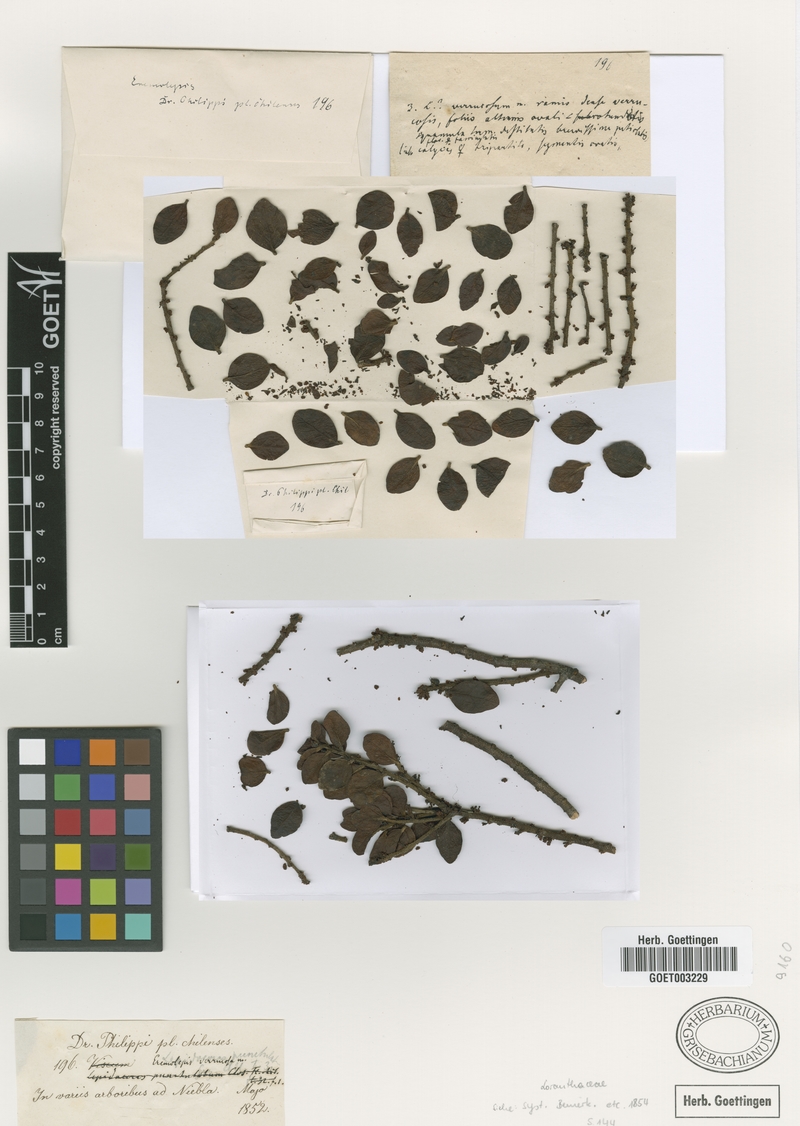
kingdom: Plantae
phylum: Tracheophyta
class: Magnoliopsida
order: Santalales
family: Santalaceae
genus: Antidaphne
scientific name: Antidaphne punctulata
